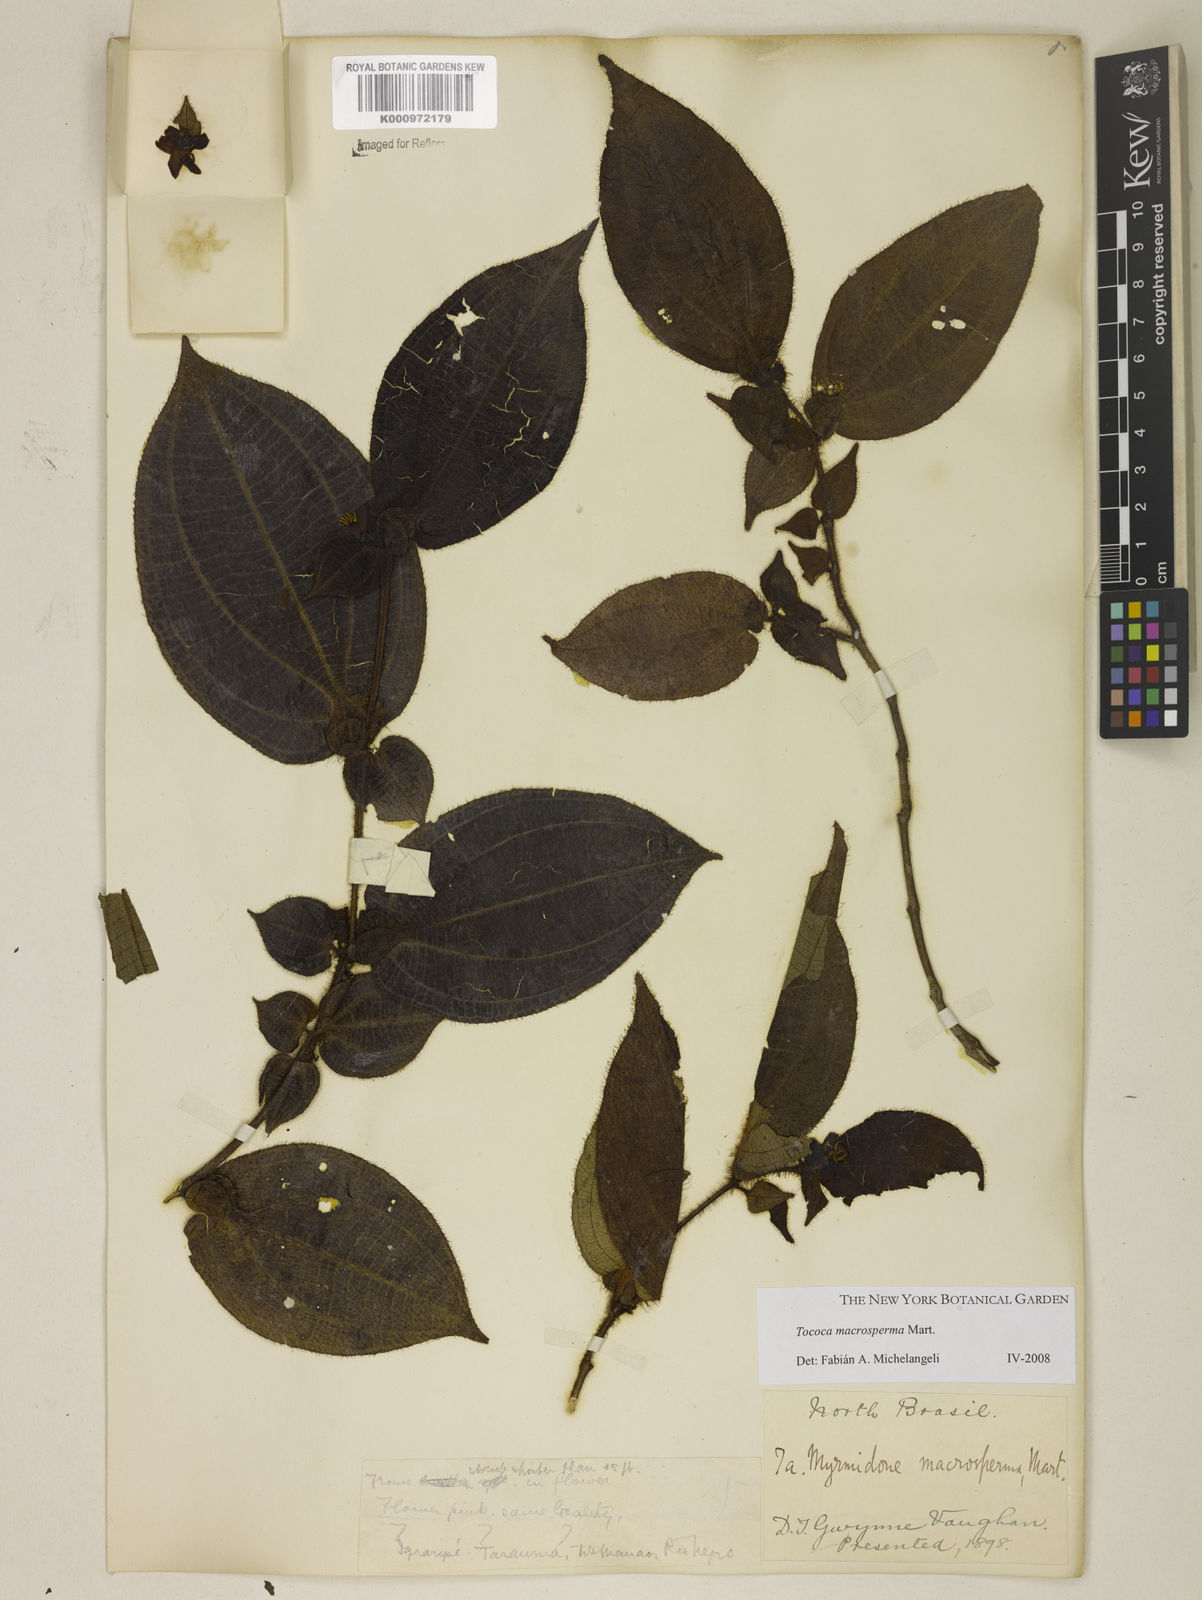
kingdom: Plantae
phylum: Tracheophyta
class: Magnoliopsida
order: Myrtales
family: Melastomataceae
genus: Miconia
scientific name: Miconia macrosperma
